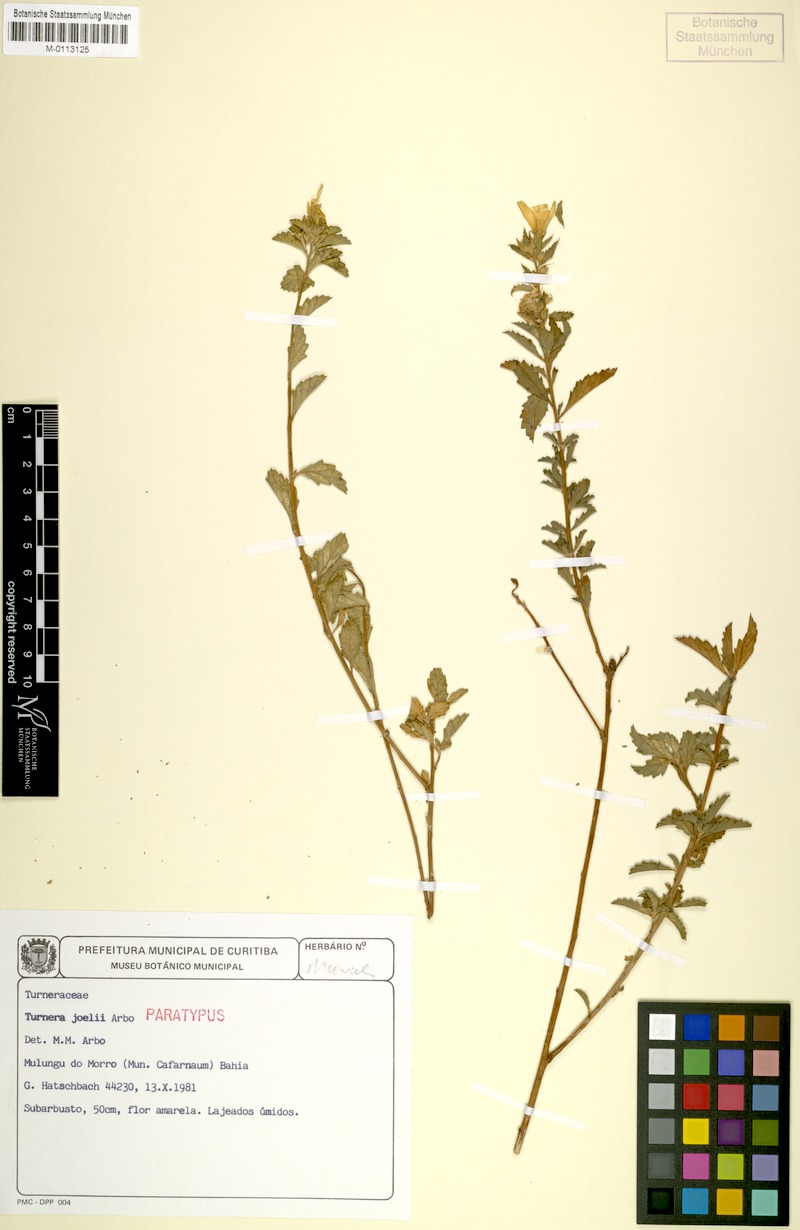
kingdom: Plantae
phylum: Tracheophyta
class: Magnoliopsida
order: Malpighiales
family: Turneraceae
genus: Turnera
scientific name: Turnera joelii
